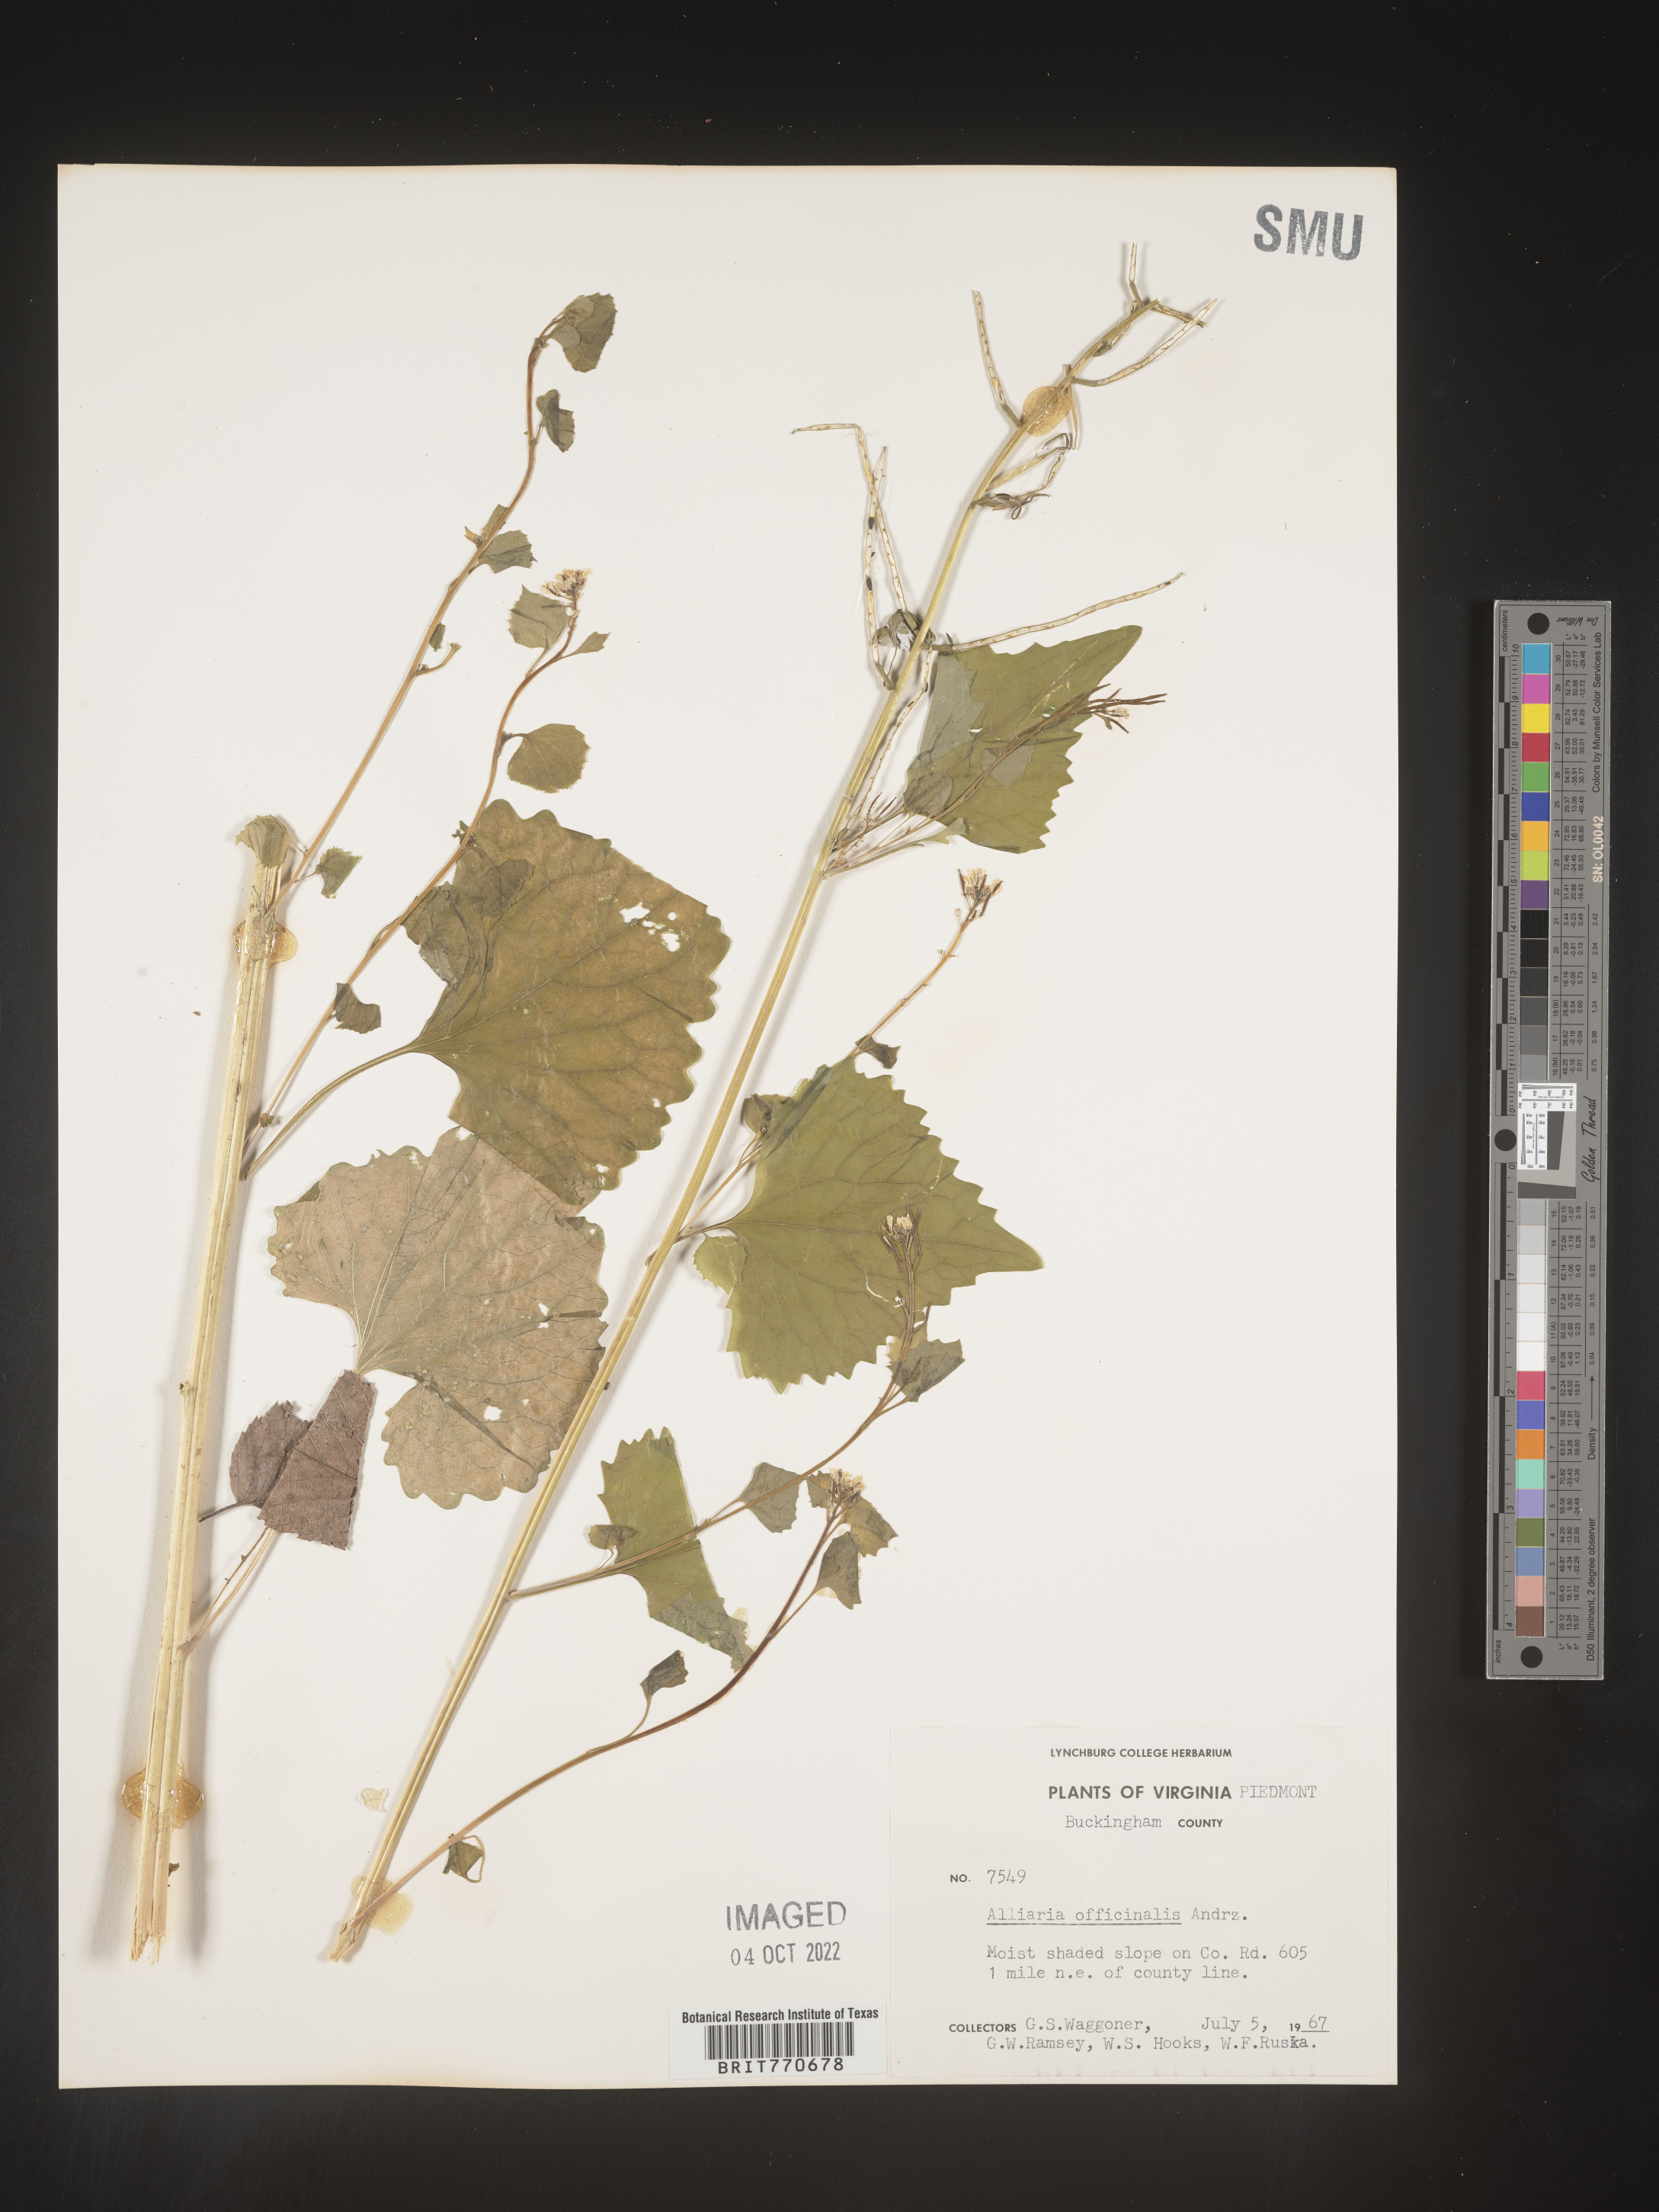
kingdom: Plantae
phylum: Tracheophyta
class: Magnoliopsida
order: Brassicales
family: Brassicaceae
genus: Alliaria
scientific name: Alliaria
